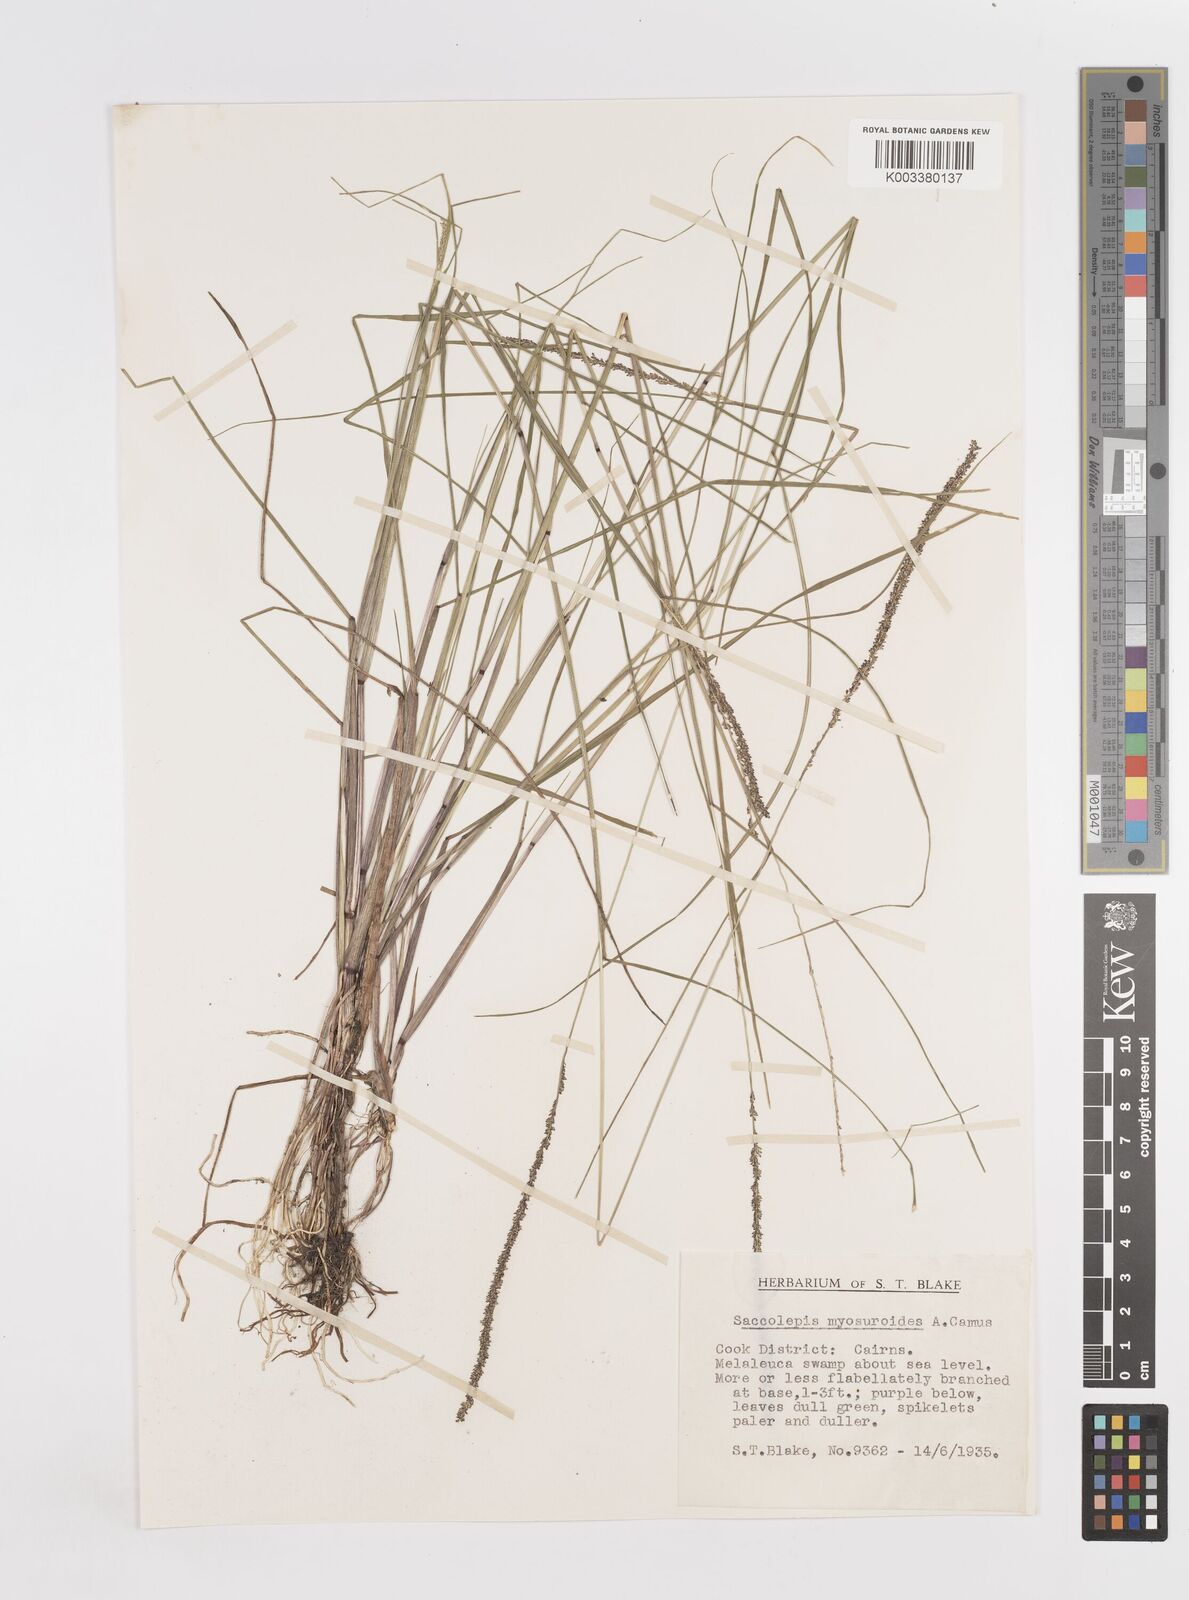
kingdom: Plantae
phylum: Tracheophyta
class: Liliopsida
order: Poales
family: Poaceae
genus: Sacciolepis
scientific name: Sacciolepis myosuroides
